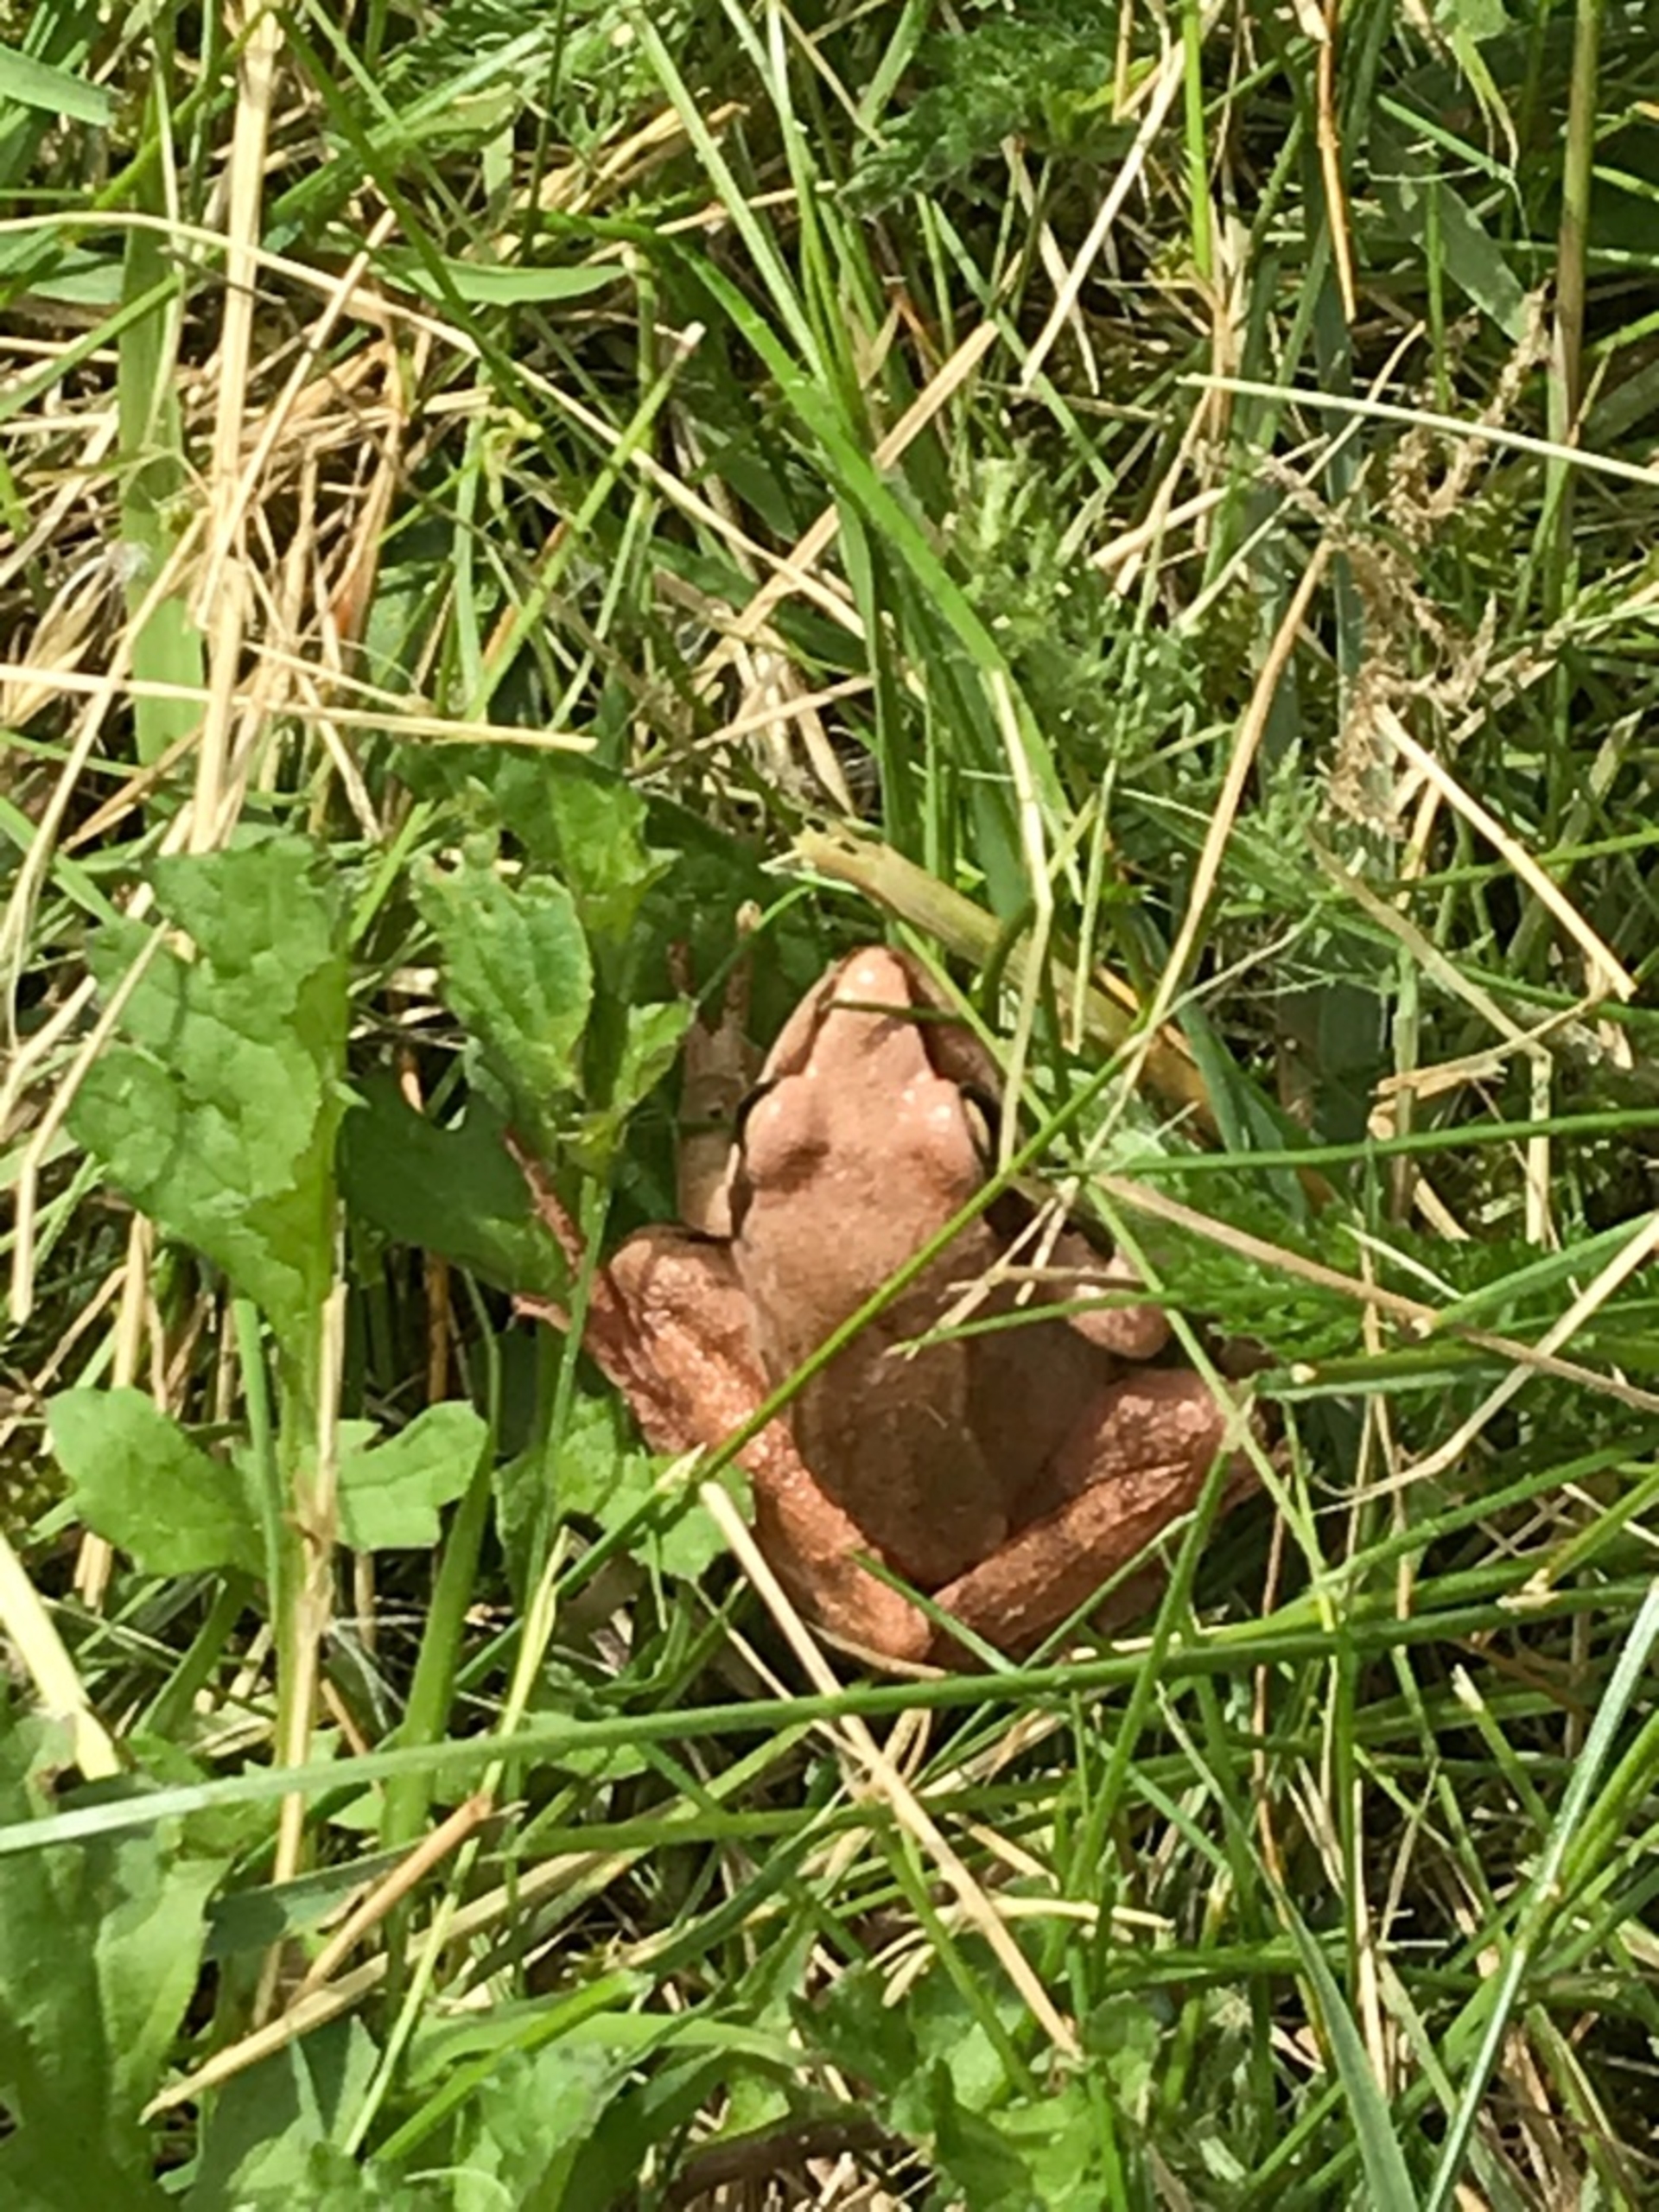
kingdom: Animalia
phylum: Chordata
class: Amphibia
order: Anura
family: Ranidae
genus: Rana
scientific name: Rana dalmatina
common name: Springfrø
